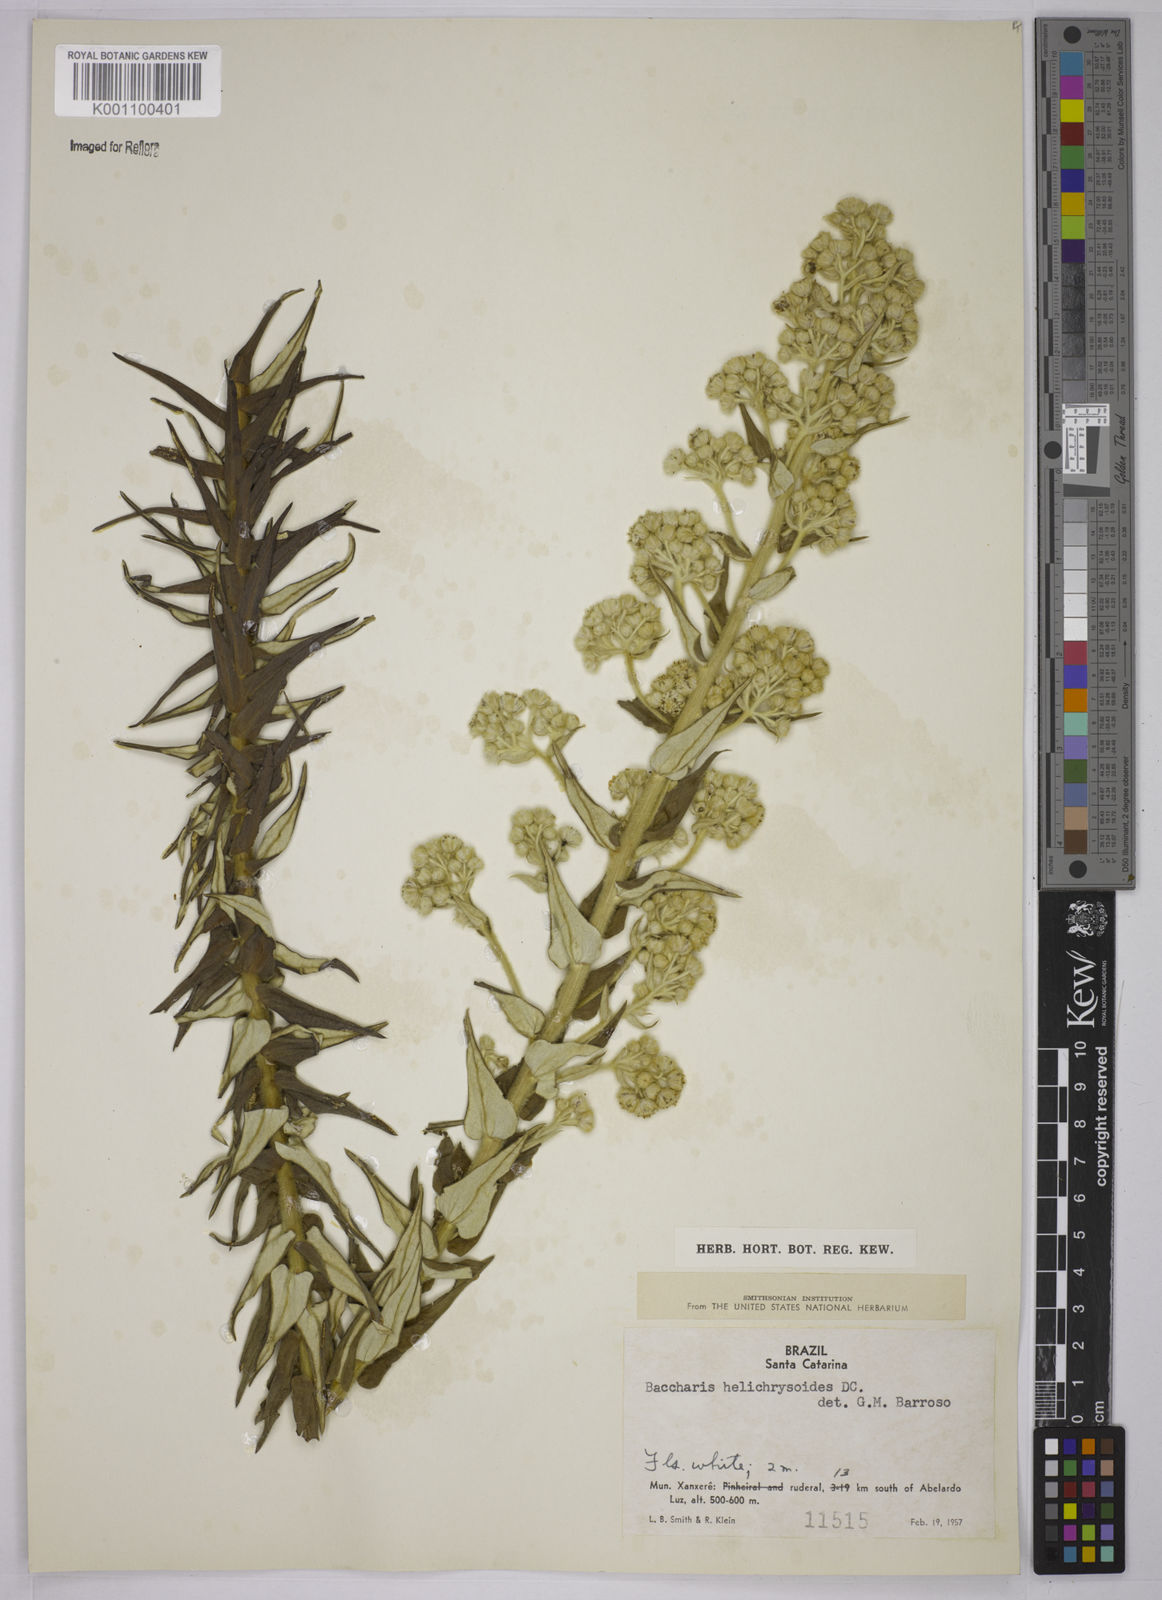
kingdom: Plantae
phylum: Tracheophyta
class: Magnoliopsida
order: Asterales
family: Asteraceae
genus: Baccharis
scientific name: Baccharis helichrysoides
